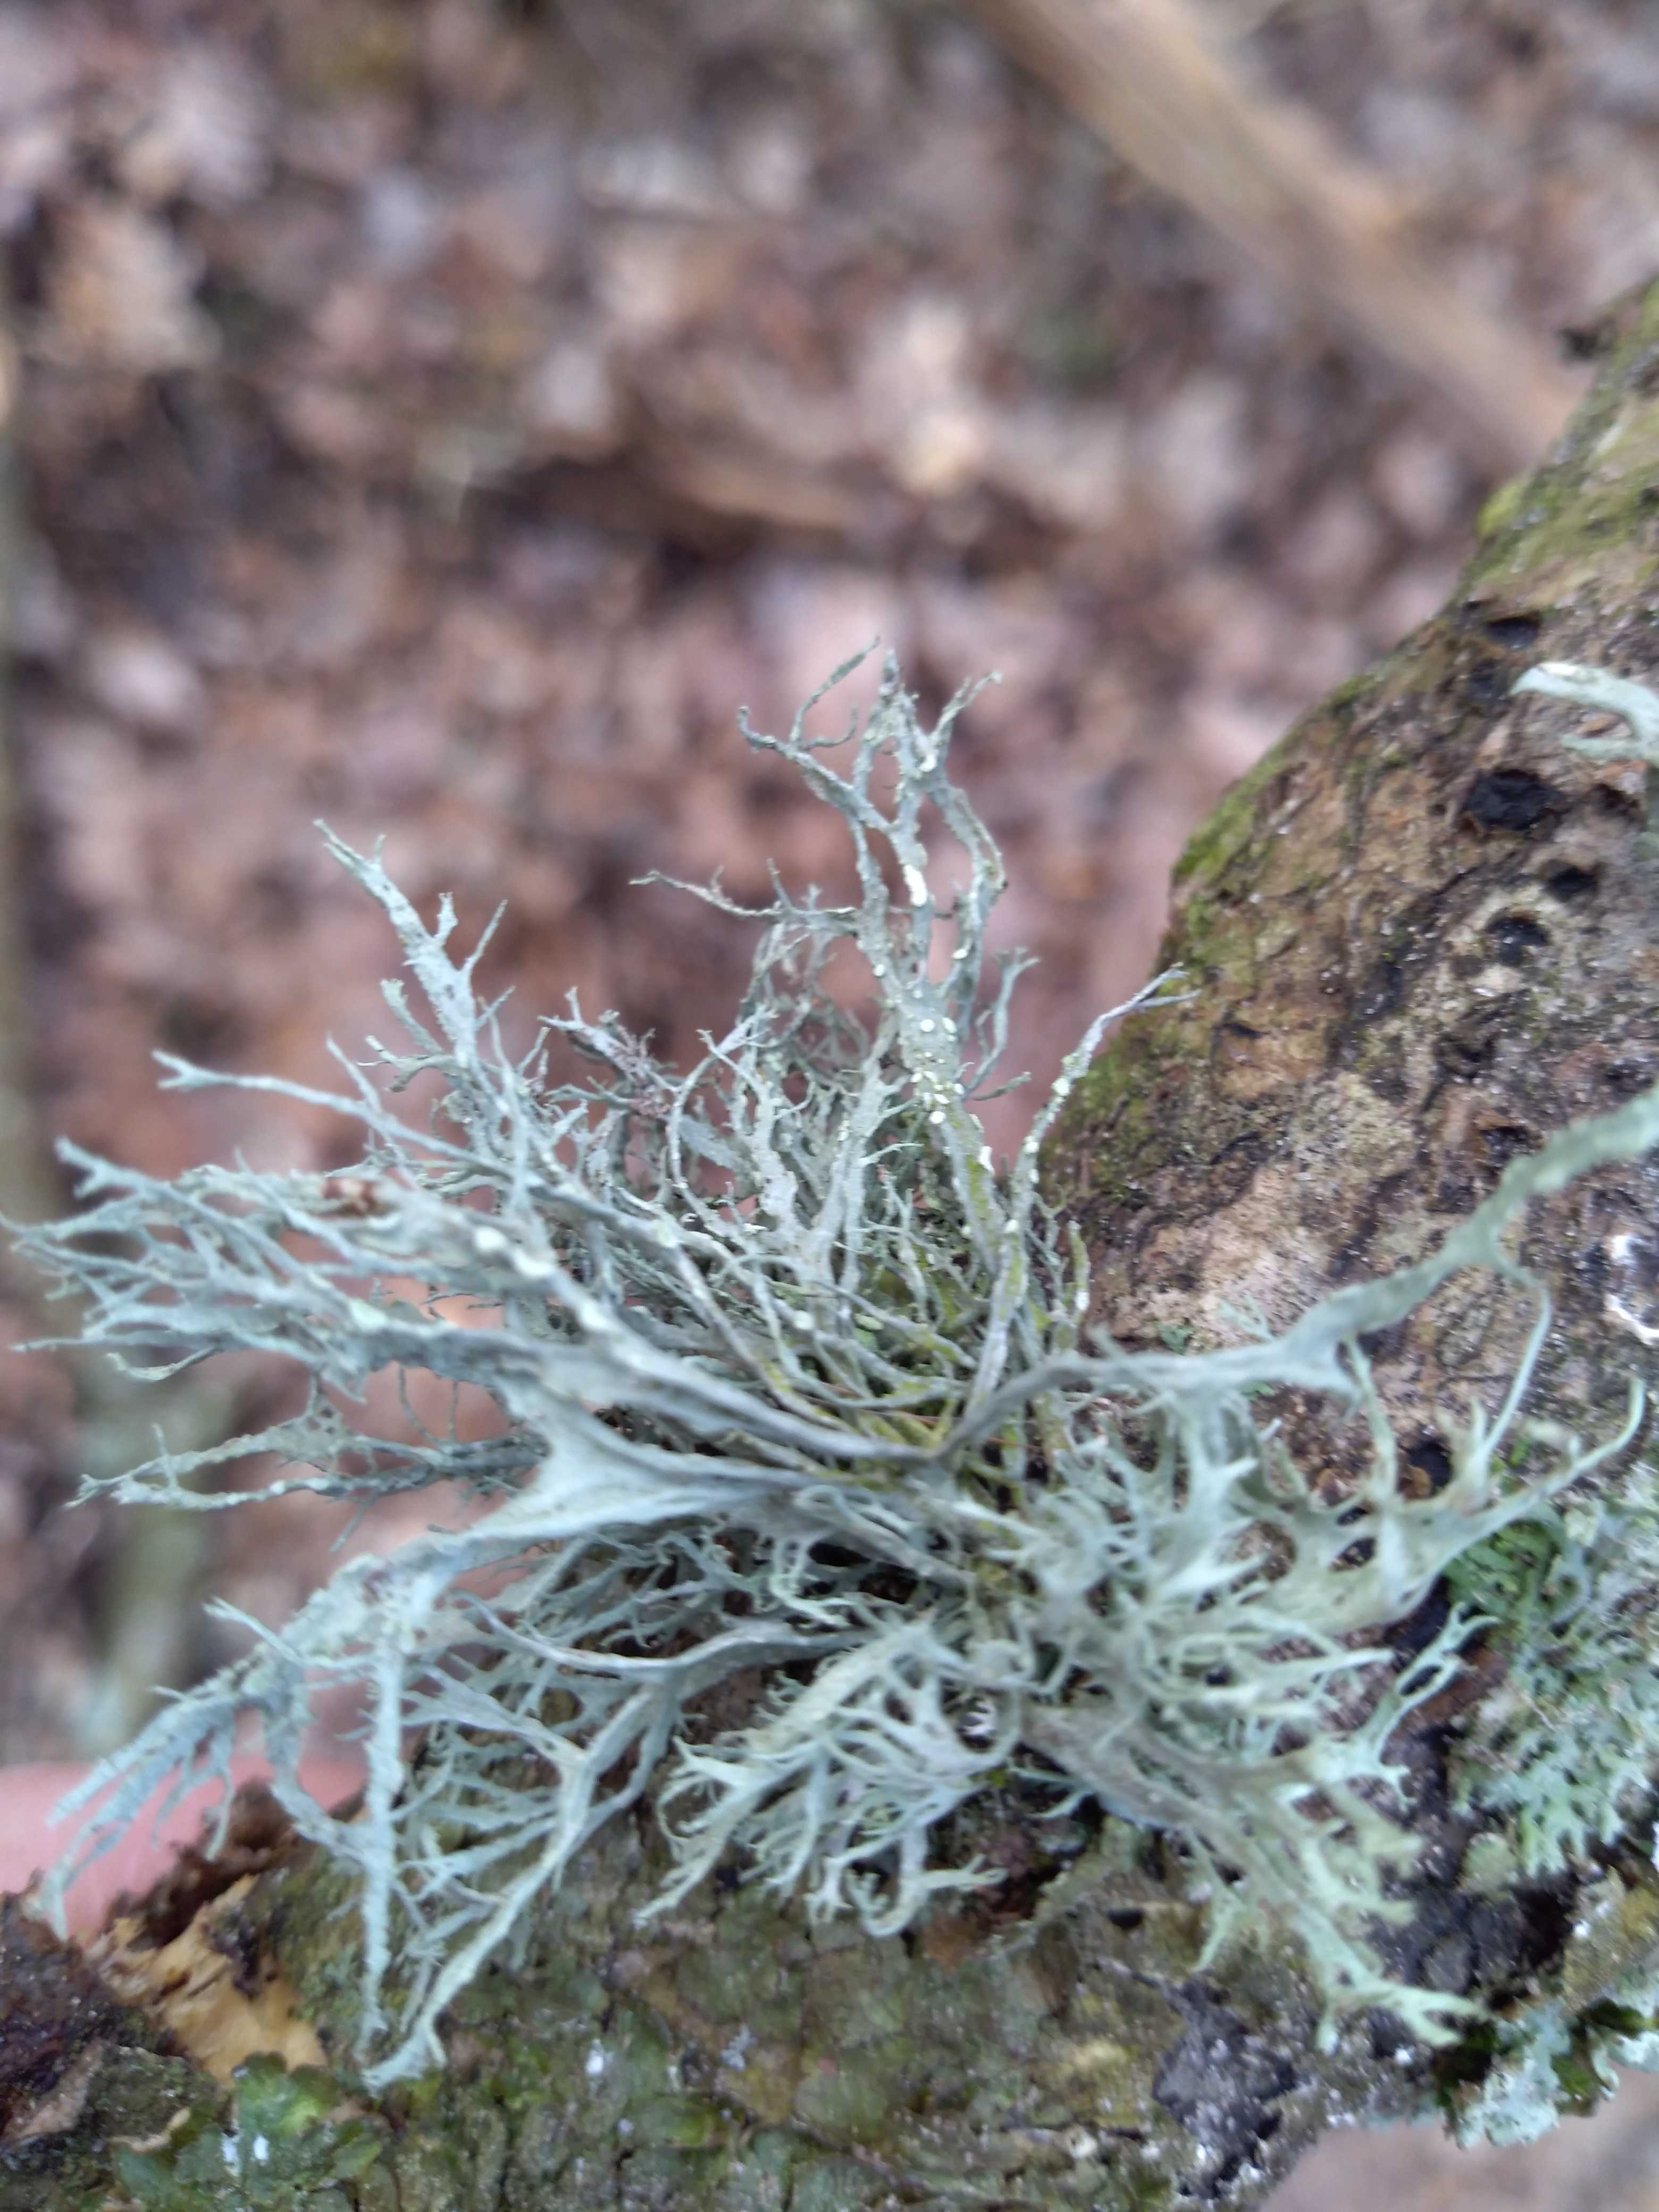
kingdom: Fungi
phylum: Ascomycota
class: Lecanoromycetes
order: Lecanorales
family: Ramalinaceae
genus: Ramalina
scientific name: Ramalina farinacea
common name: melet grenlav
